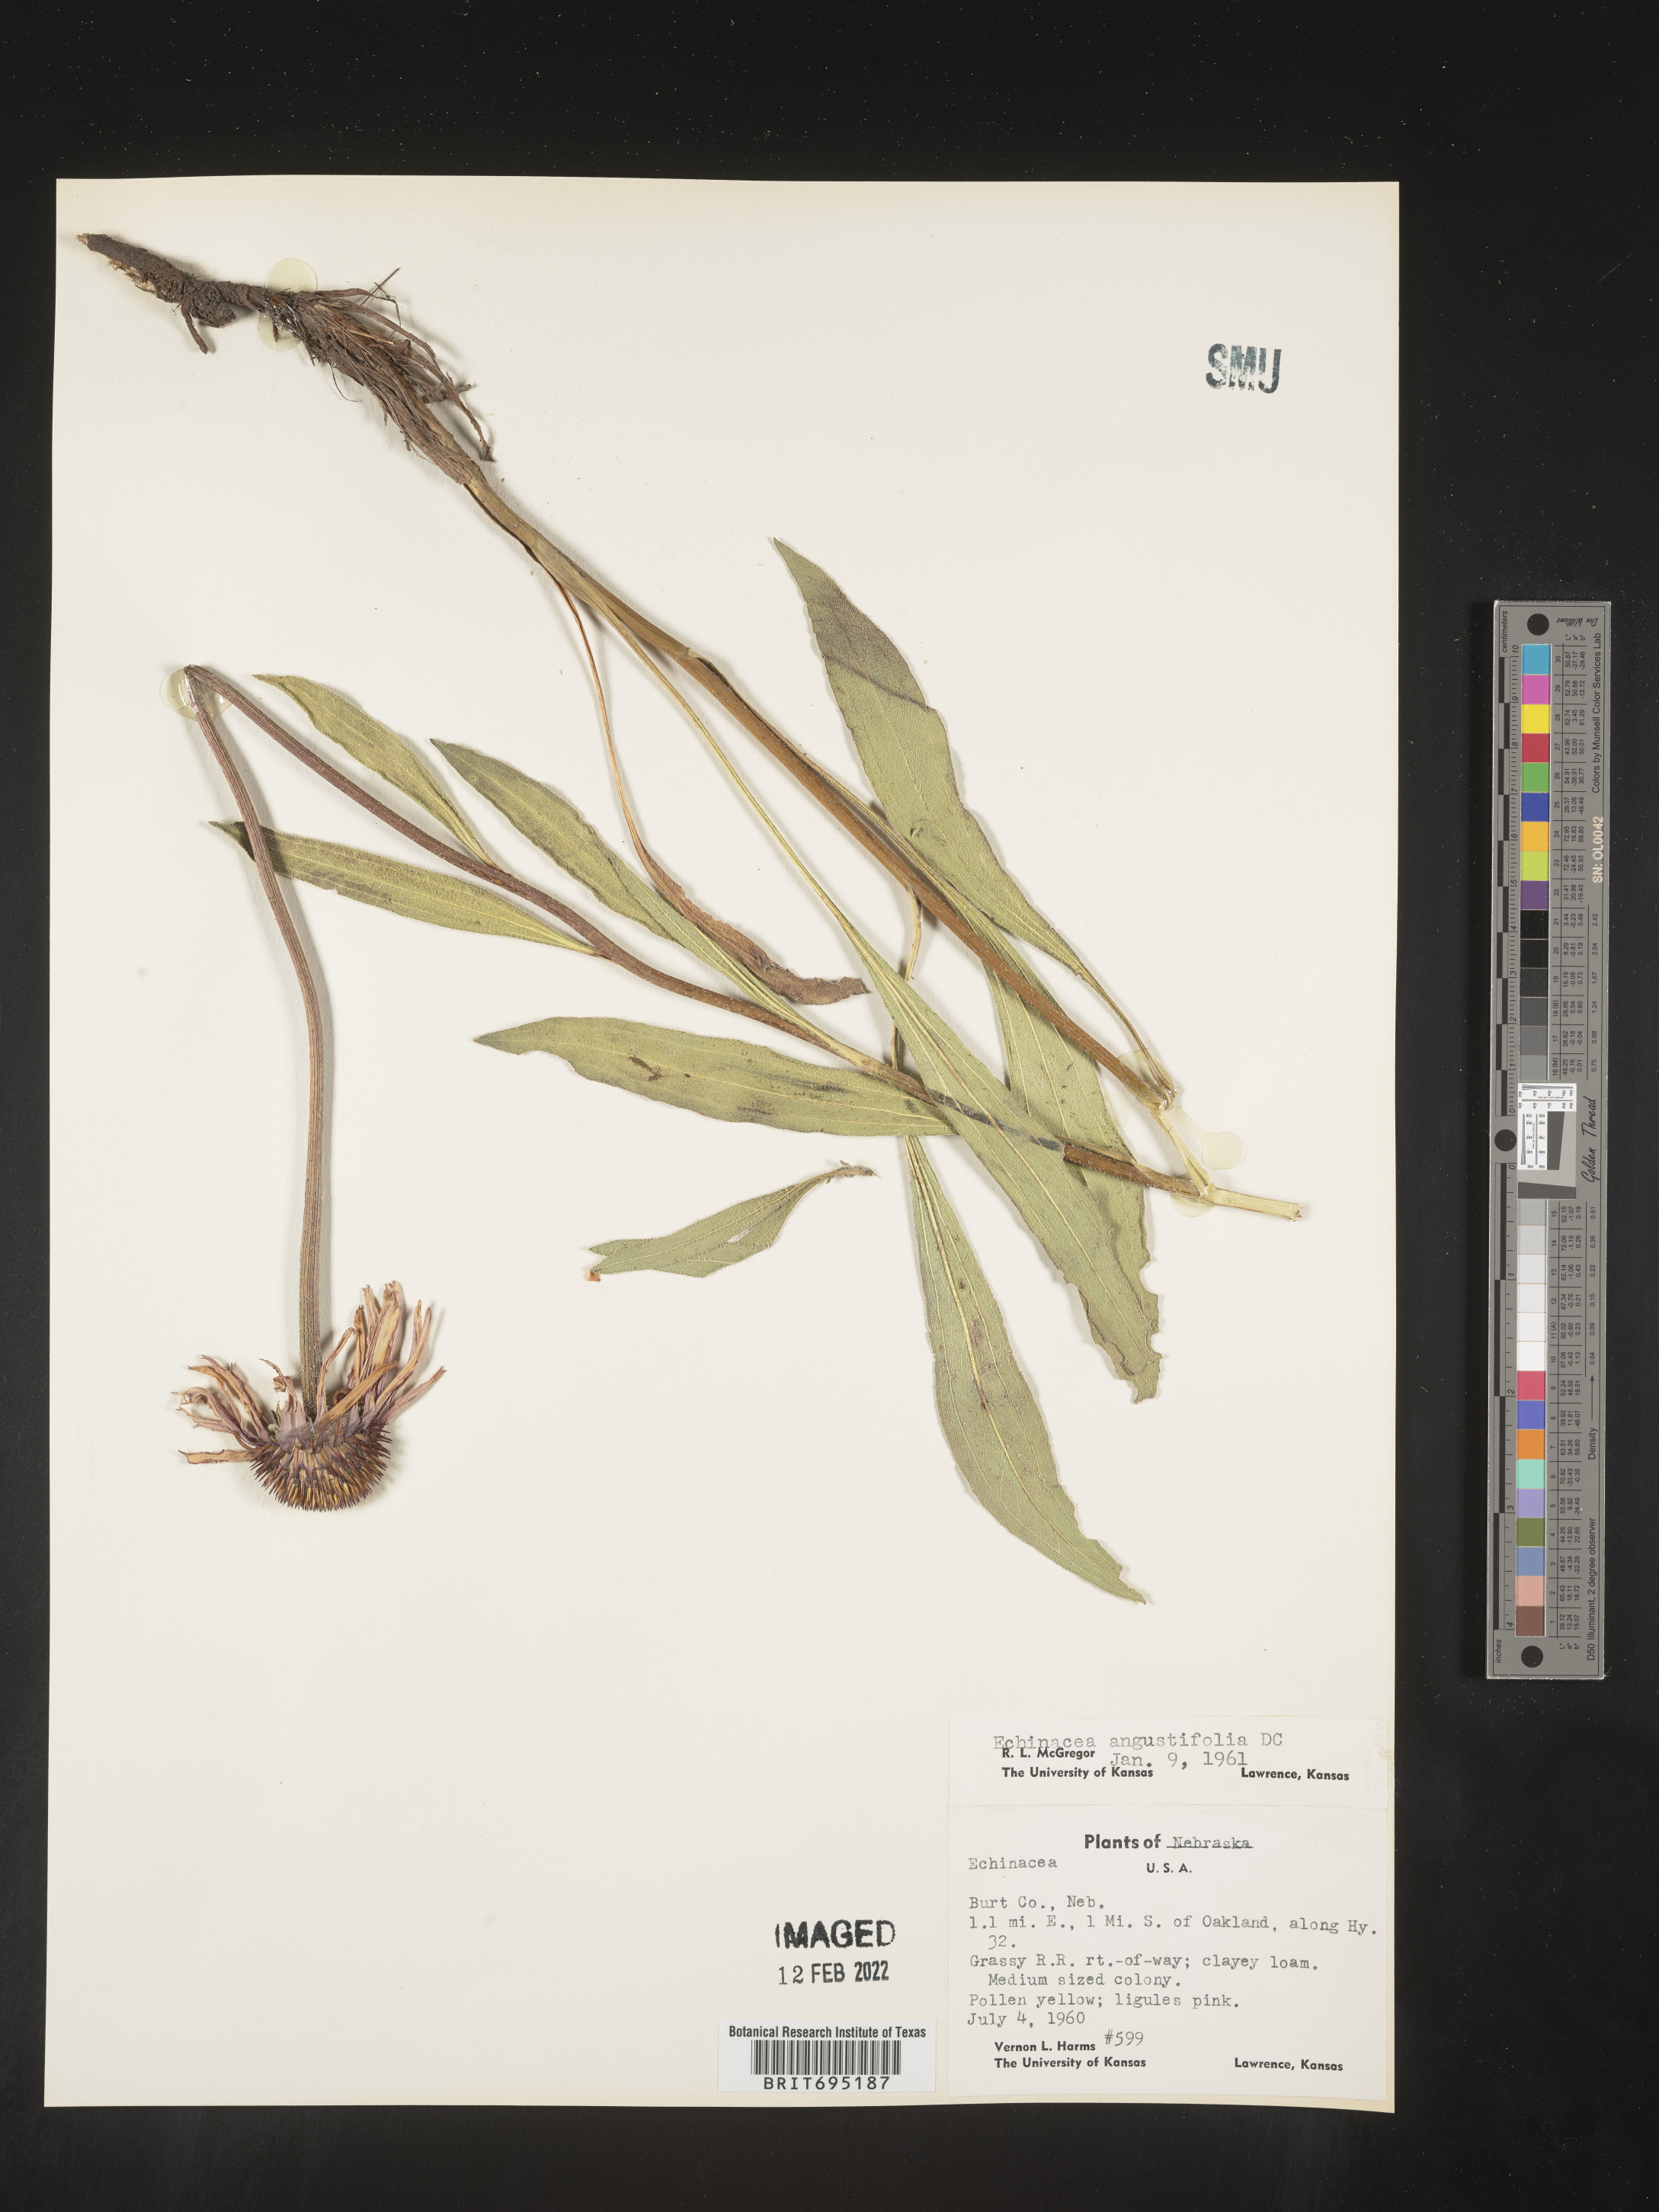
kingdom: Plantae
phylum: Tracheophyta
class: Magnoliopsida
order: Asterales
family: Asteraceae
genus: Echinacea
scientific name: Echinacea angustifolia
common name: Black-sampson echinacea
